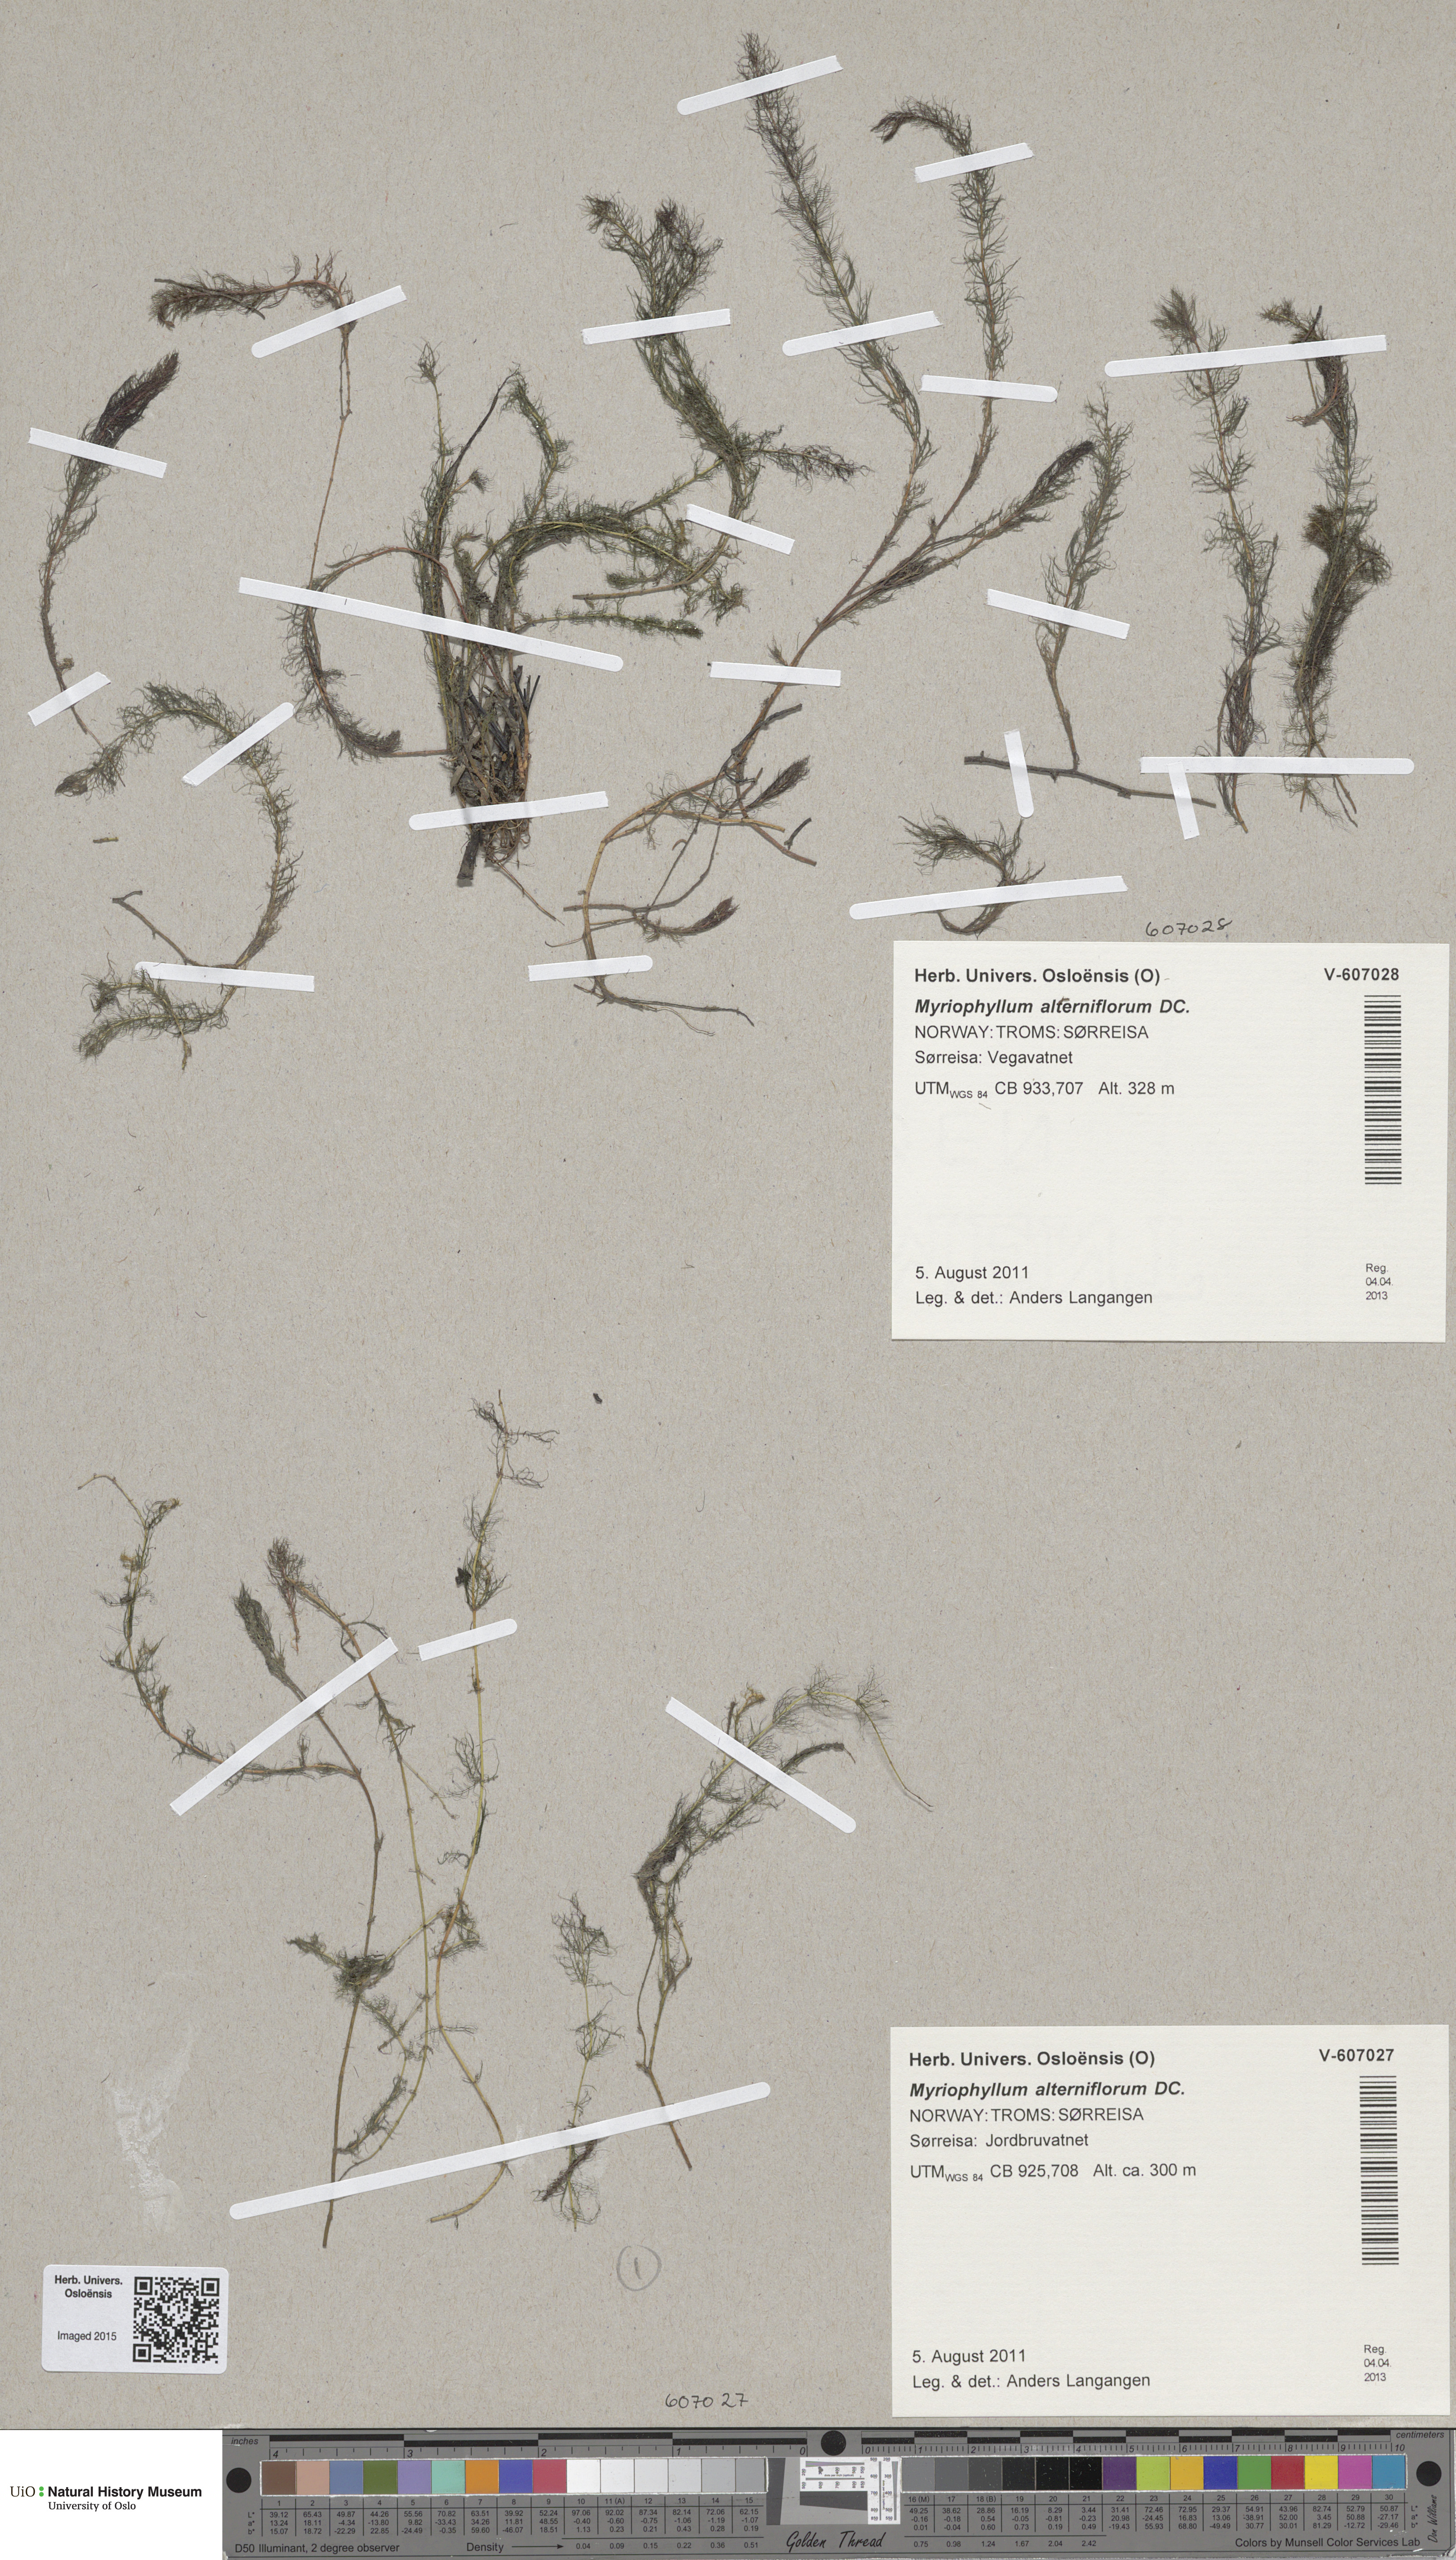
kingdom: Plantae
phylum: Tracheophyta
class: Magnoliopsida
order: Saxifragales
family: Haloragaceae
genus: Myriophyllum
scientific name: Myriophyllum alterniflorum
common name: Alternate water-milfoil
